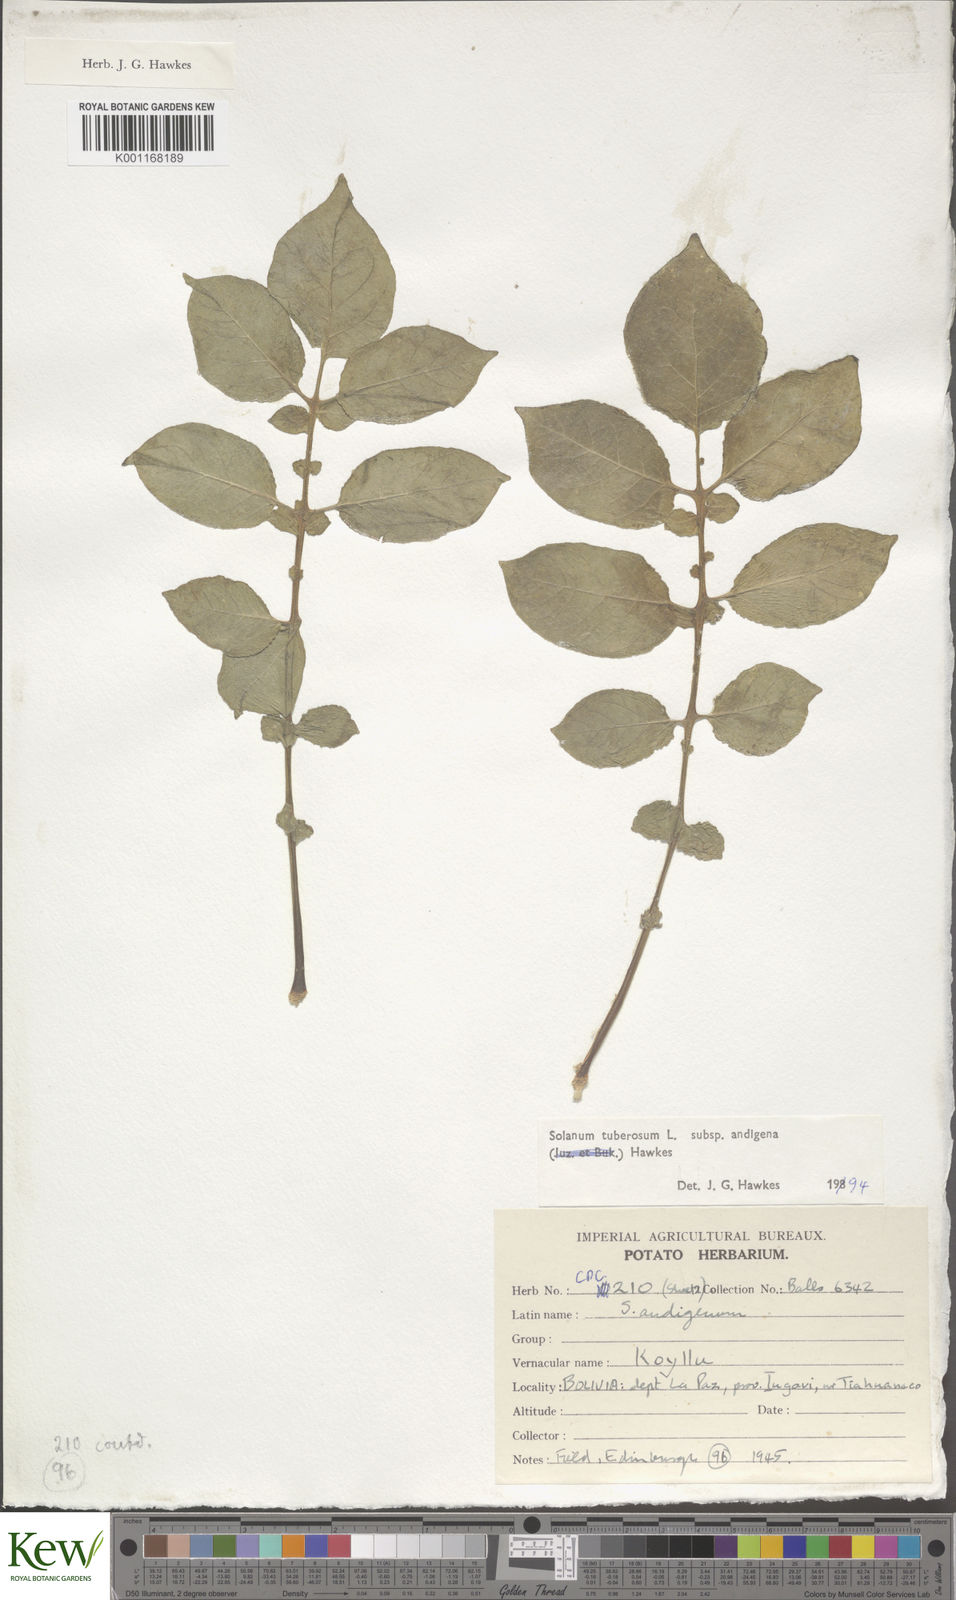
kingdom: Plantae
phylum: Tracheophyta
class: Magnoliopsida
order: Solanales
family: Solanaceae
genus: Solanum
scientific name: Solanum tuberosum
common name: Potato
